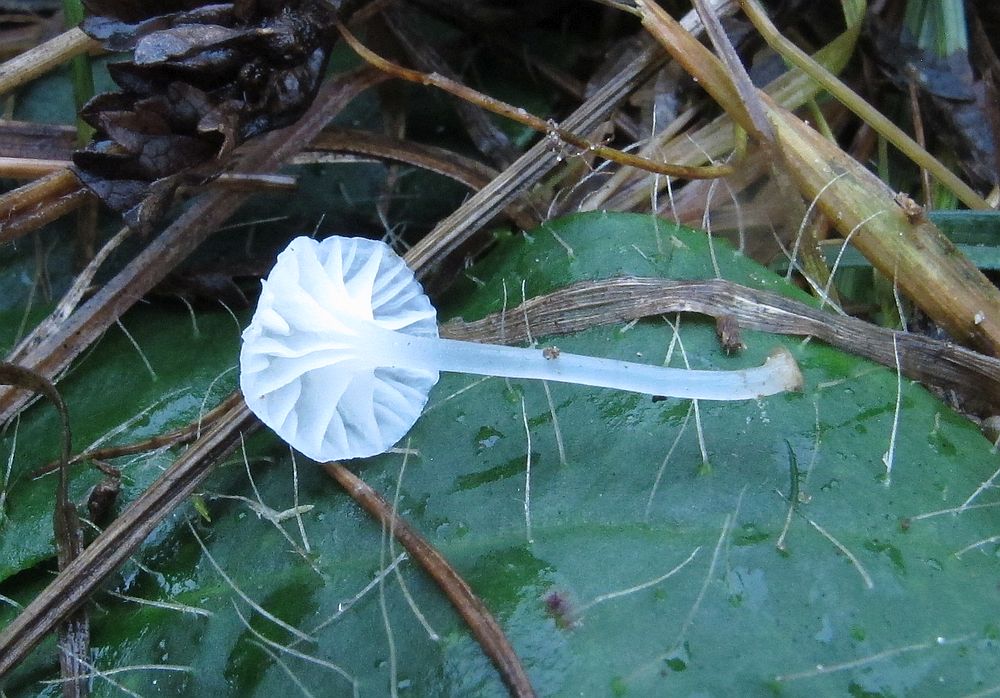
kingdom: Fungi
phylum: Basidiomycota
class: Agaricomycetes
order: Agaricales
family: Mycenaceae
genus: Atheniella
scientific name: Atheniella delectabilis
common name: nitrøs huesvamp
